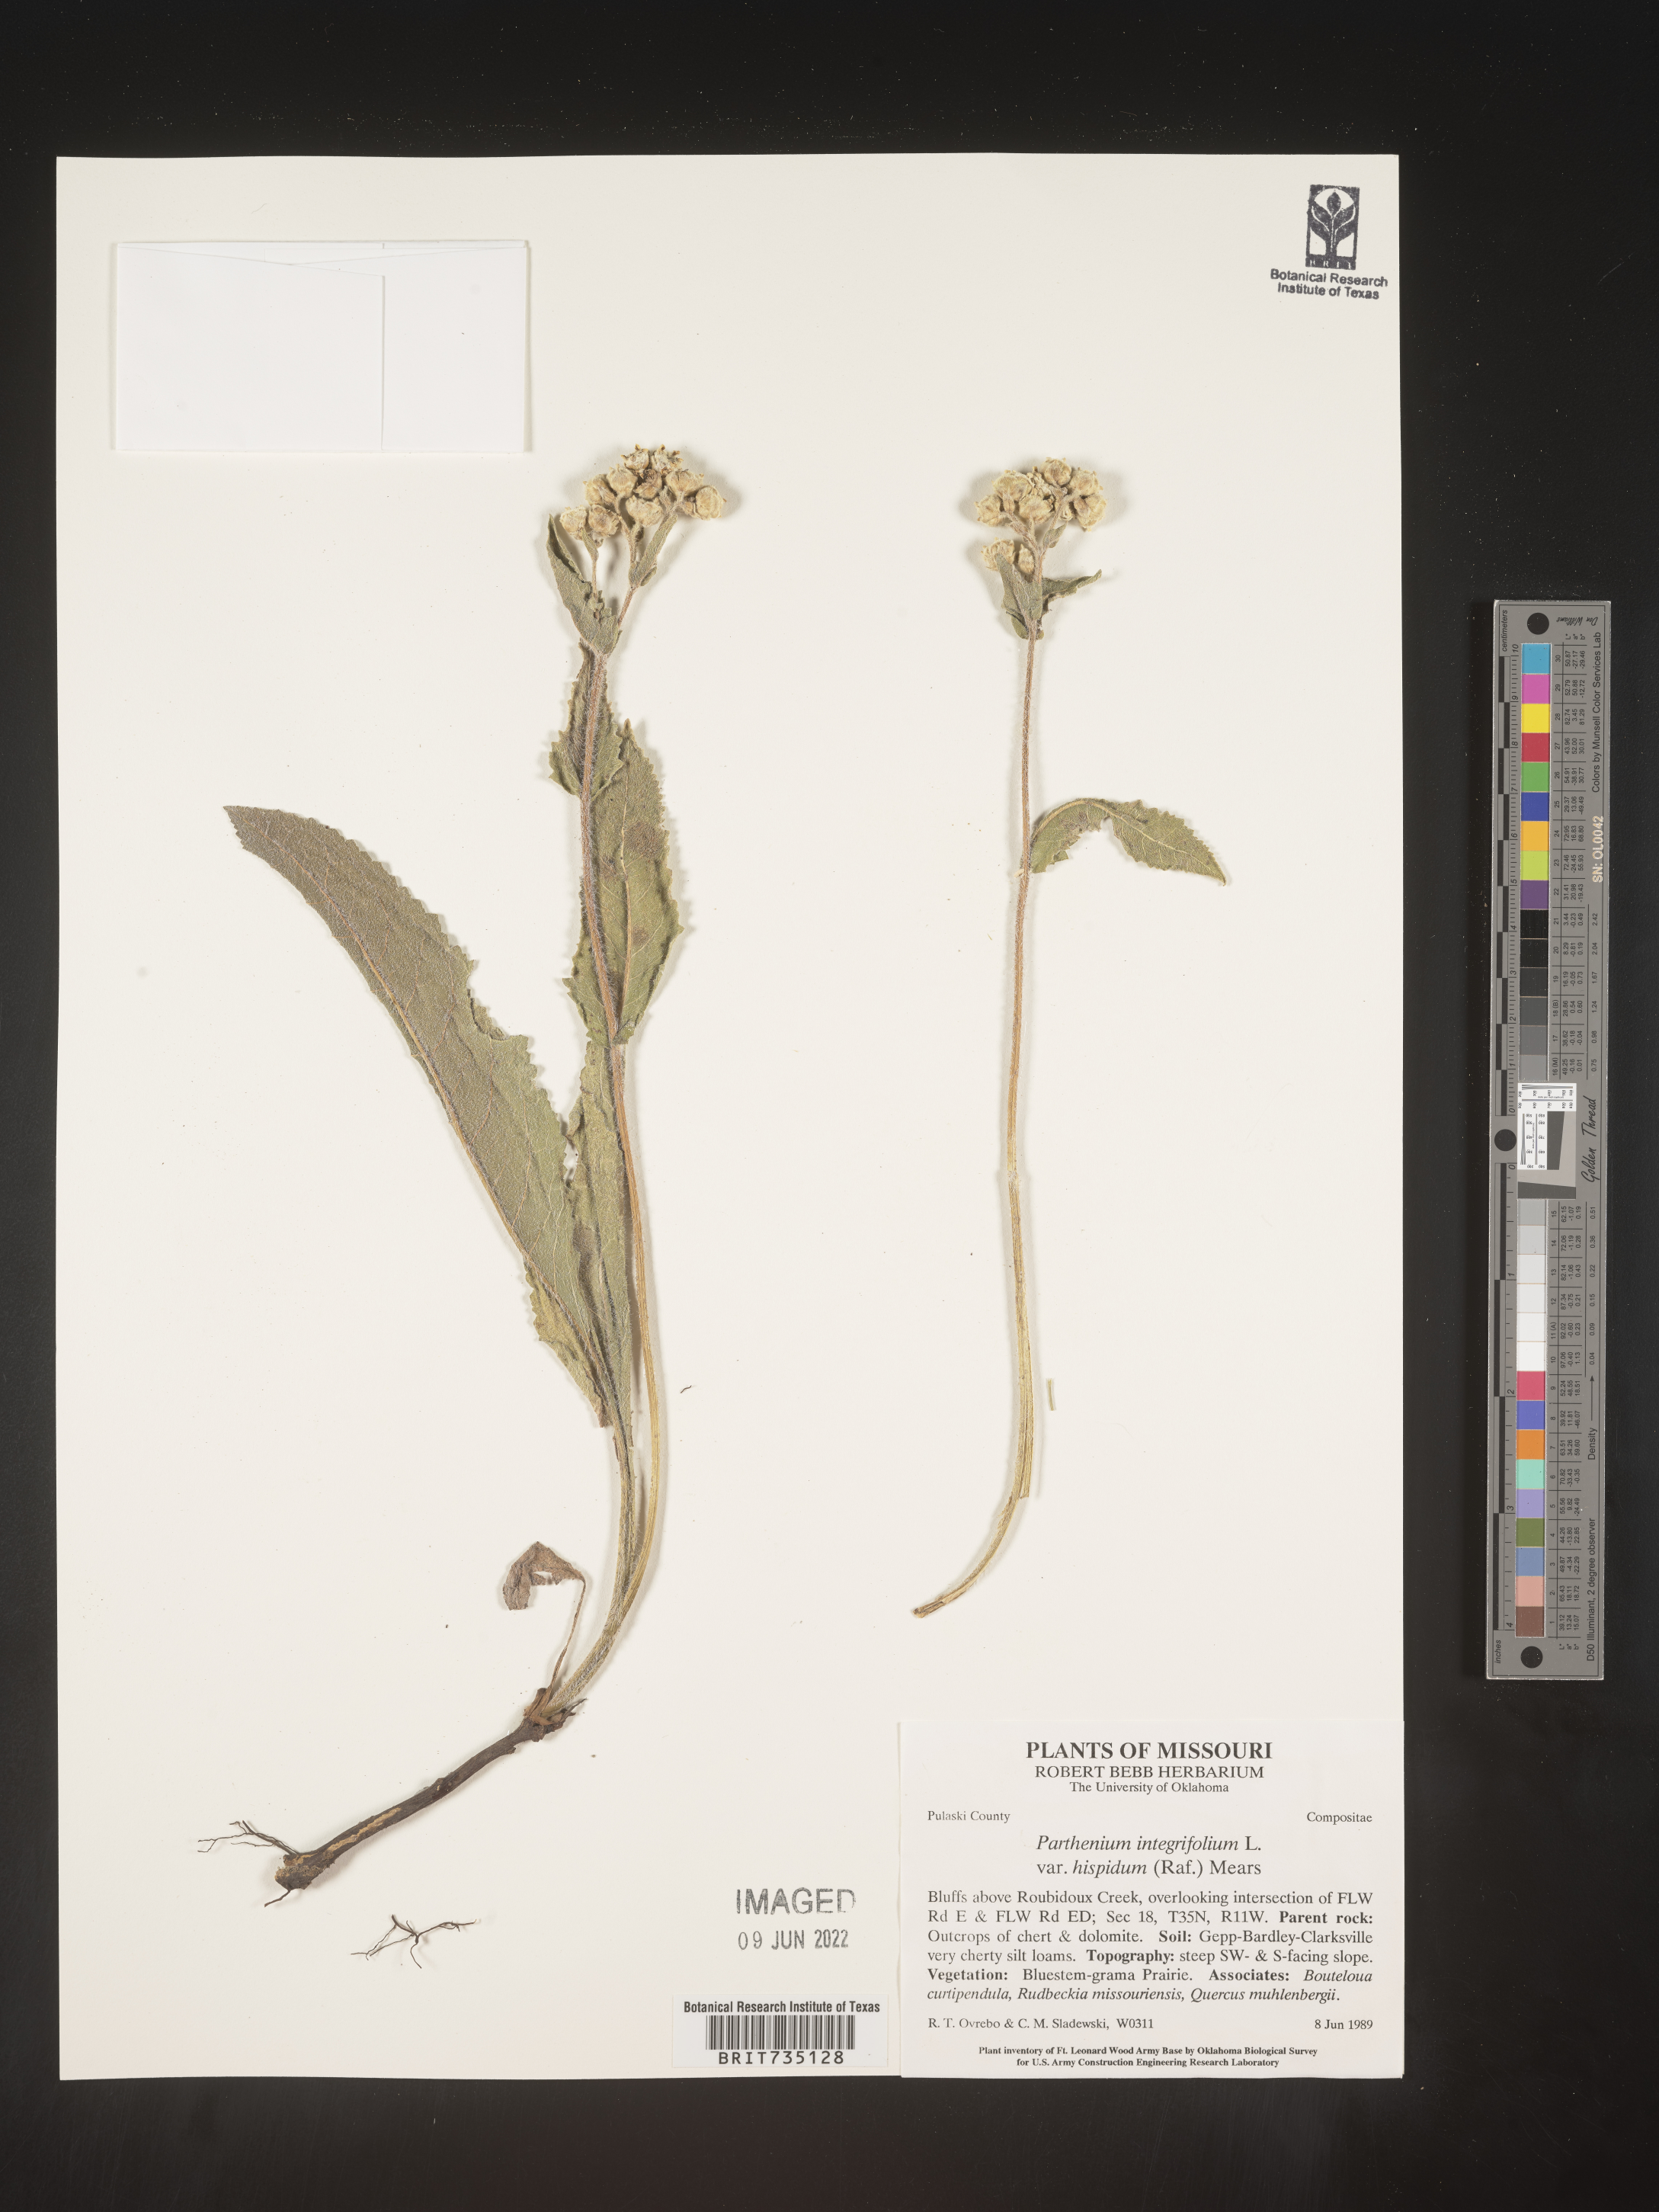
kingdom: Plantae
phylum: Tracheophyta
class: Magnoliopsida
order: Asterales
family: Asteraceae
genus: Parthenium
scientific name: Parthenium integrifolium
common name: American feverfew
